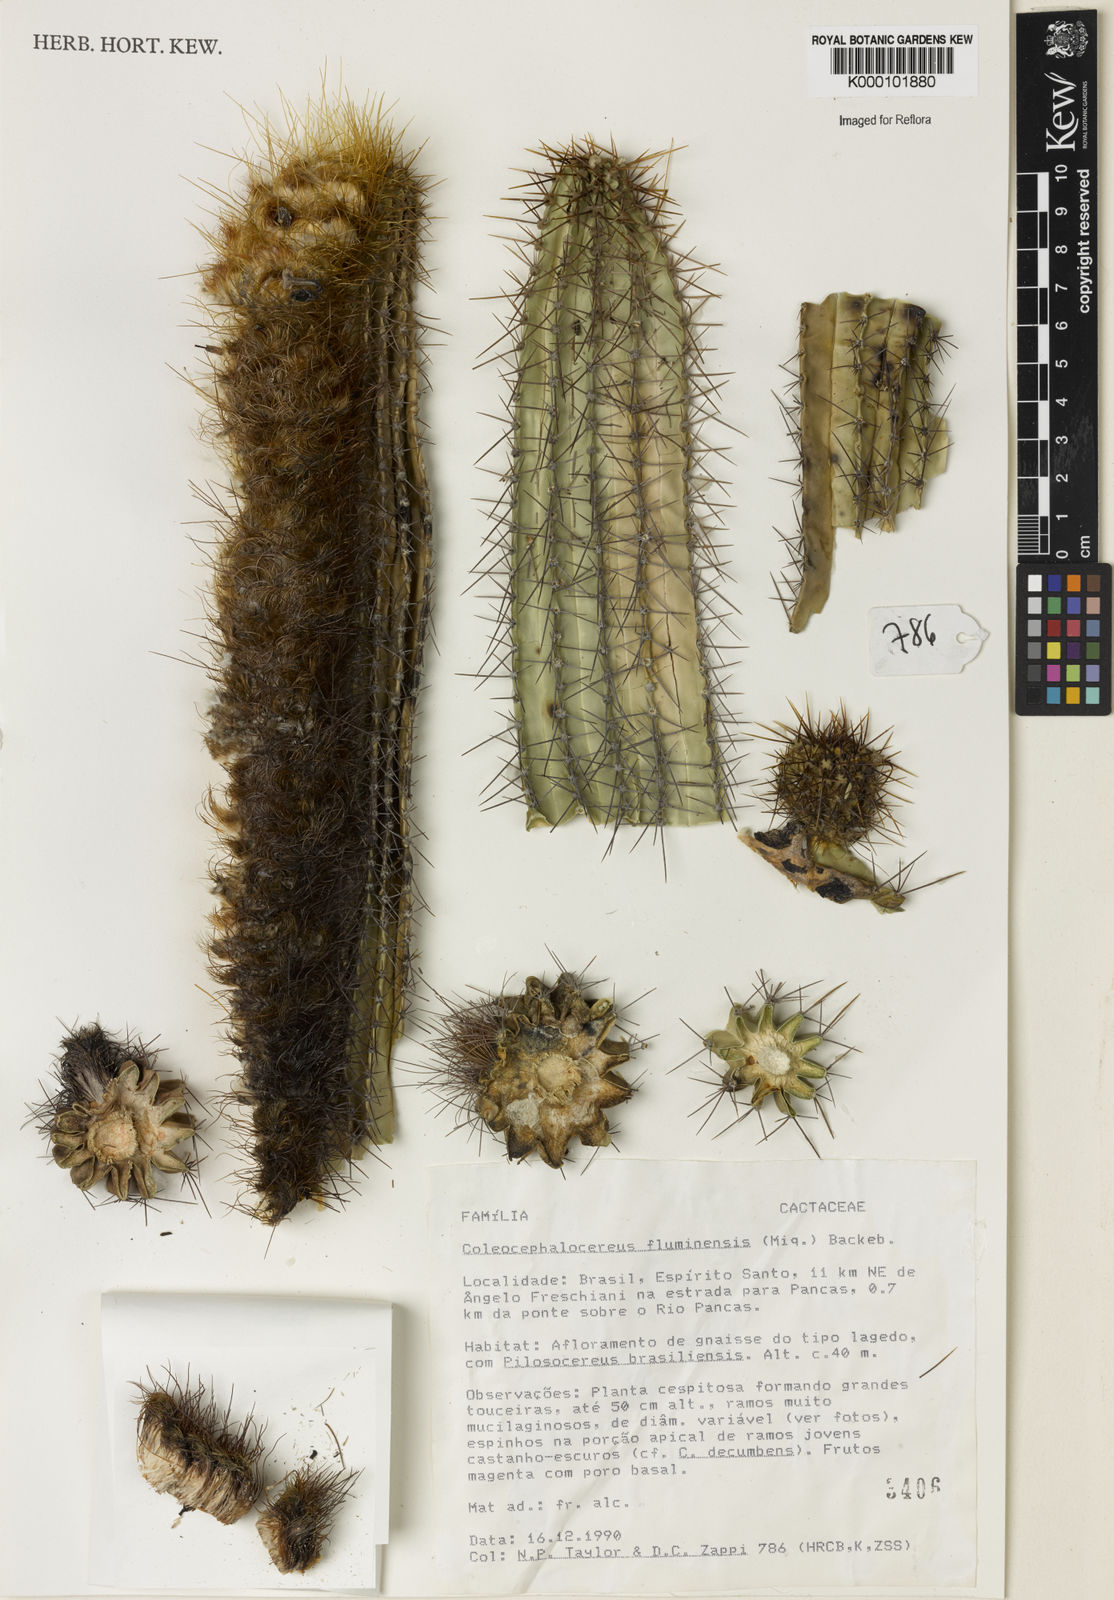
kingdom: Plantae
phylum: Tracheophyta
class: Magnoliopsida
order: Caryophyllales
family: Cactaceae
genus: Coleocephalocereus
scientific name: Coleocephalocereus fluminensis
